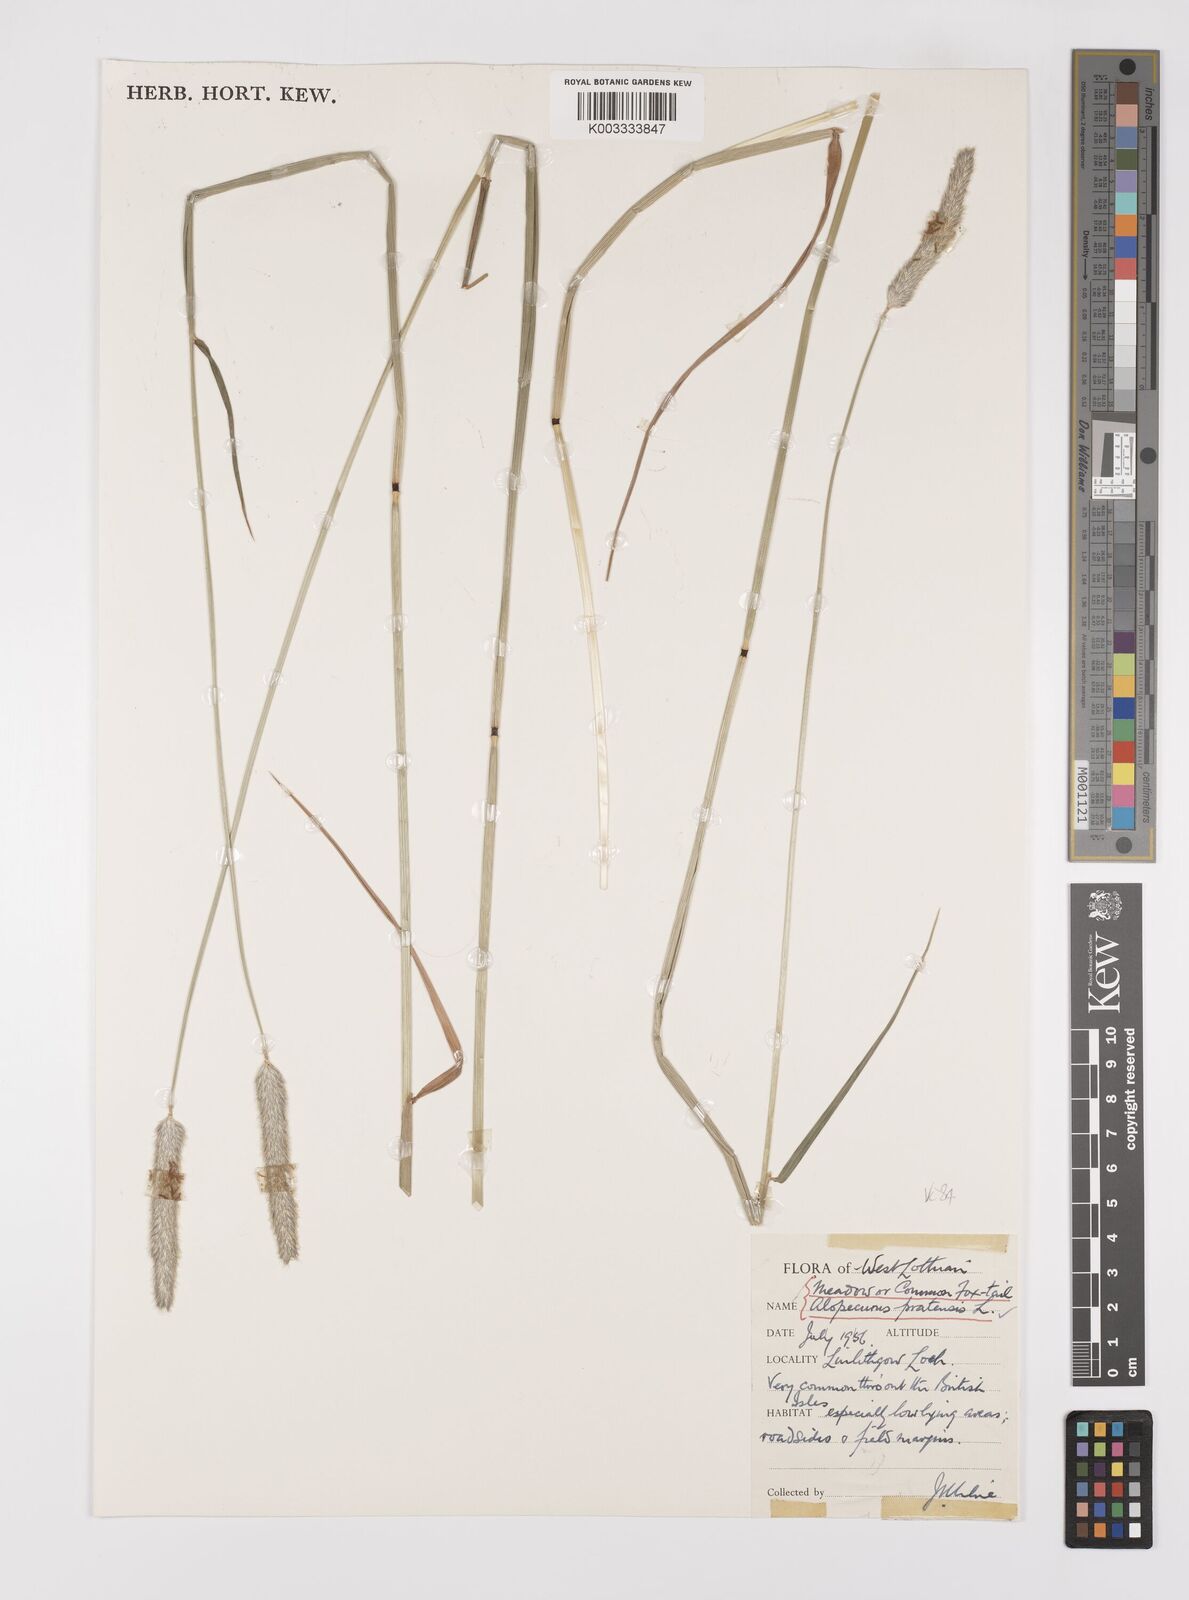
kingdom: Plantae
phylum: Tracheophyta
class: Liliopsida
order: Poales
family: Poaceae
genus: Alopecurus
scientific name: Alopecurus pratensis
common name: Meadow foxtail
